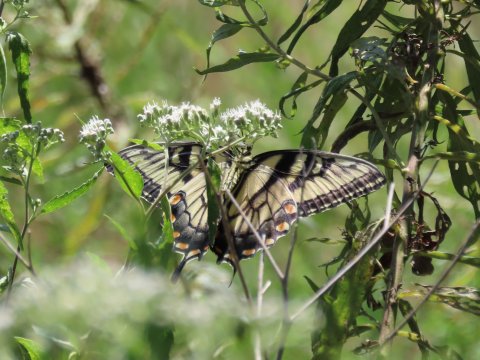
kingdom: Animalia
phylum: Arthropoda
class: Insecta
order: Lepidoptera
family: Papilionidae
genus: Pterourus
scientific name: Pterourus glaucus
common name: Eastern Tiger Swallowtail
